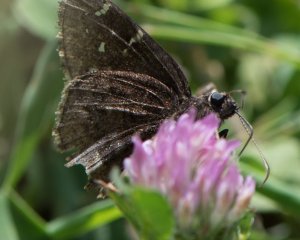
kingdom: Animalia
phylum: Arthropoda
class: Insecta
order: Lepidoptera
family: Hesperiidae
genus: Autochton
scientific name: Autochton
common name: Northern Cloudywing
